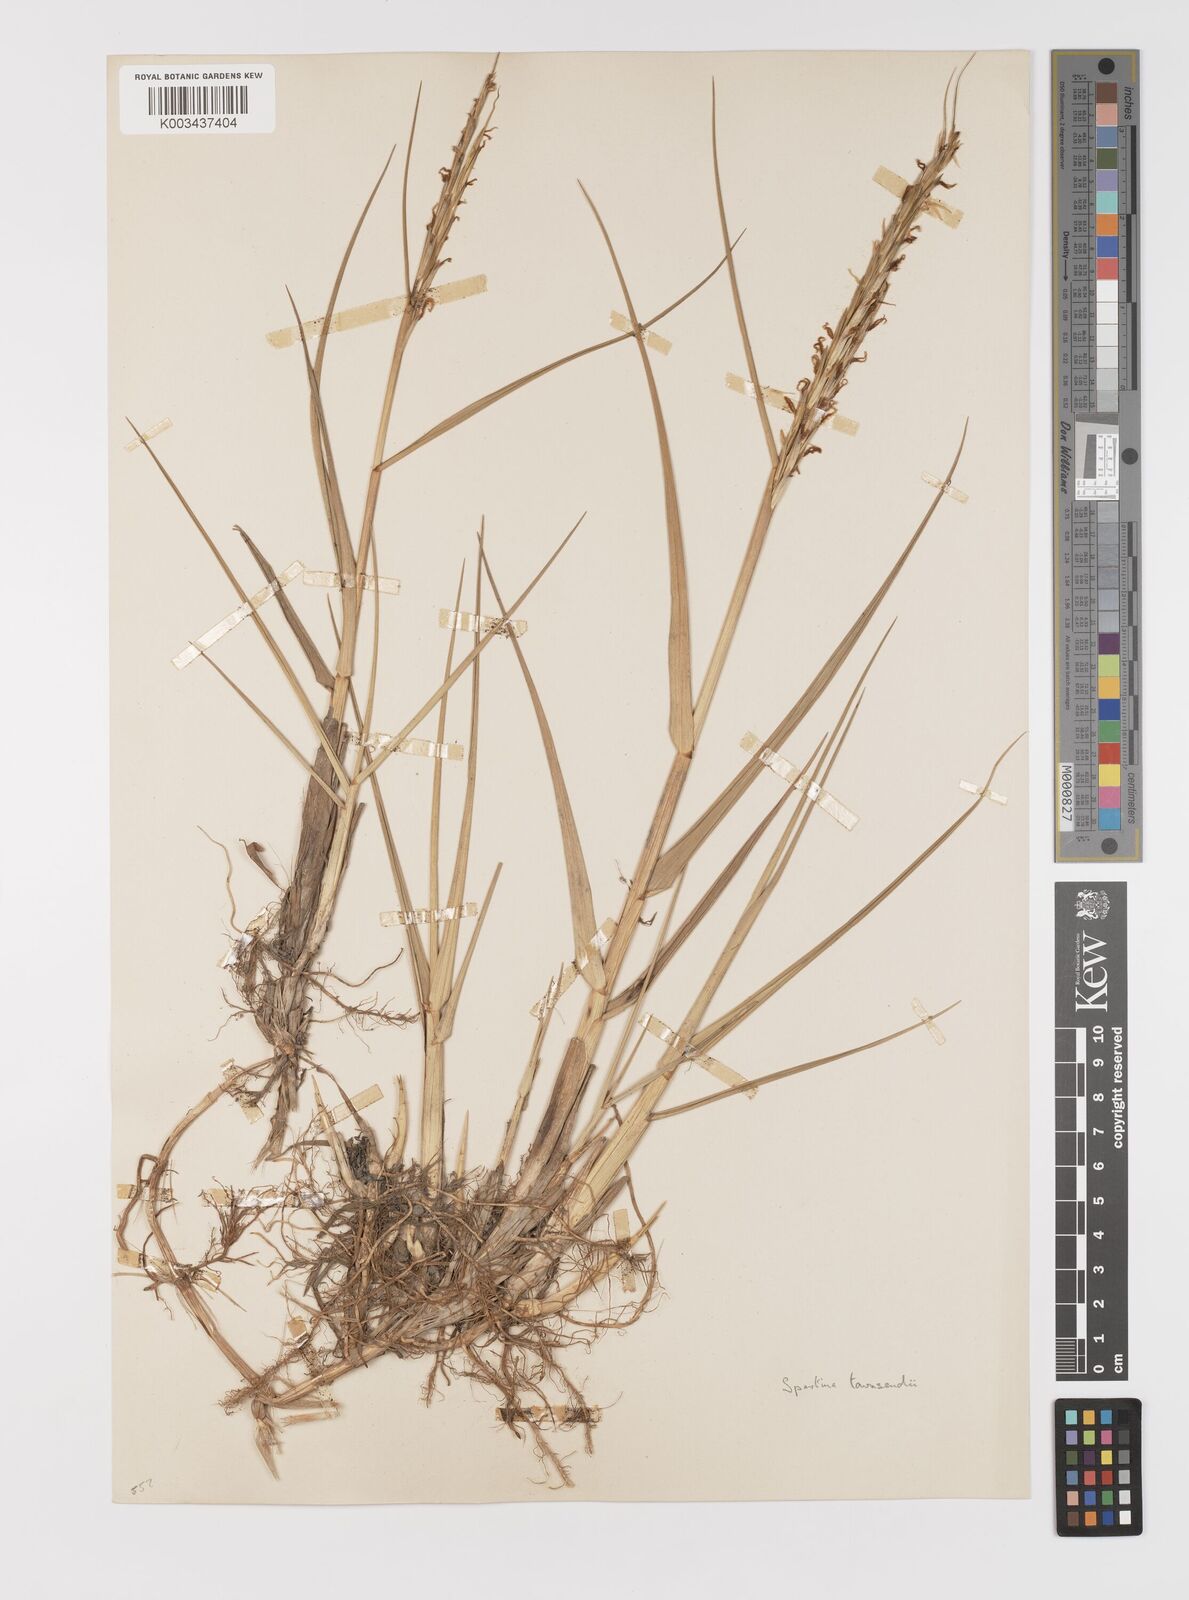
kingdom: Plantae
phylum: Tracheophyta
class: Liliopsida
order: Poales
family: Poaceae
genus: Sporobolus
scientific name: Sporobolus townsendii
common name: Townsend's cordgrass
